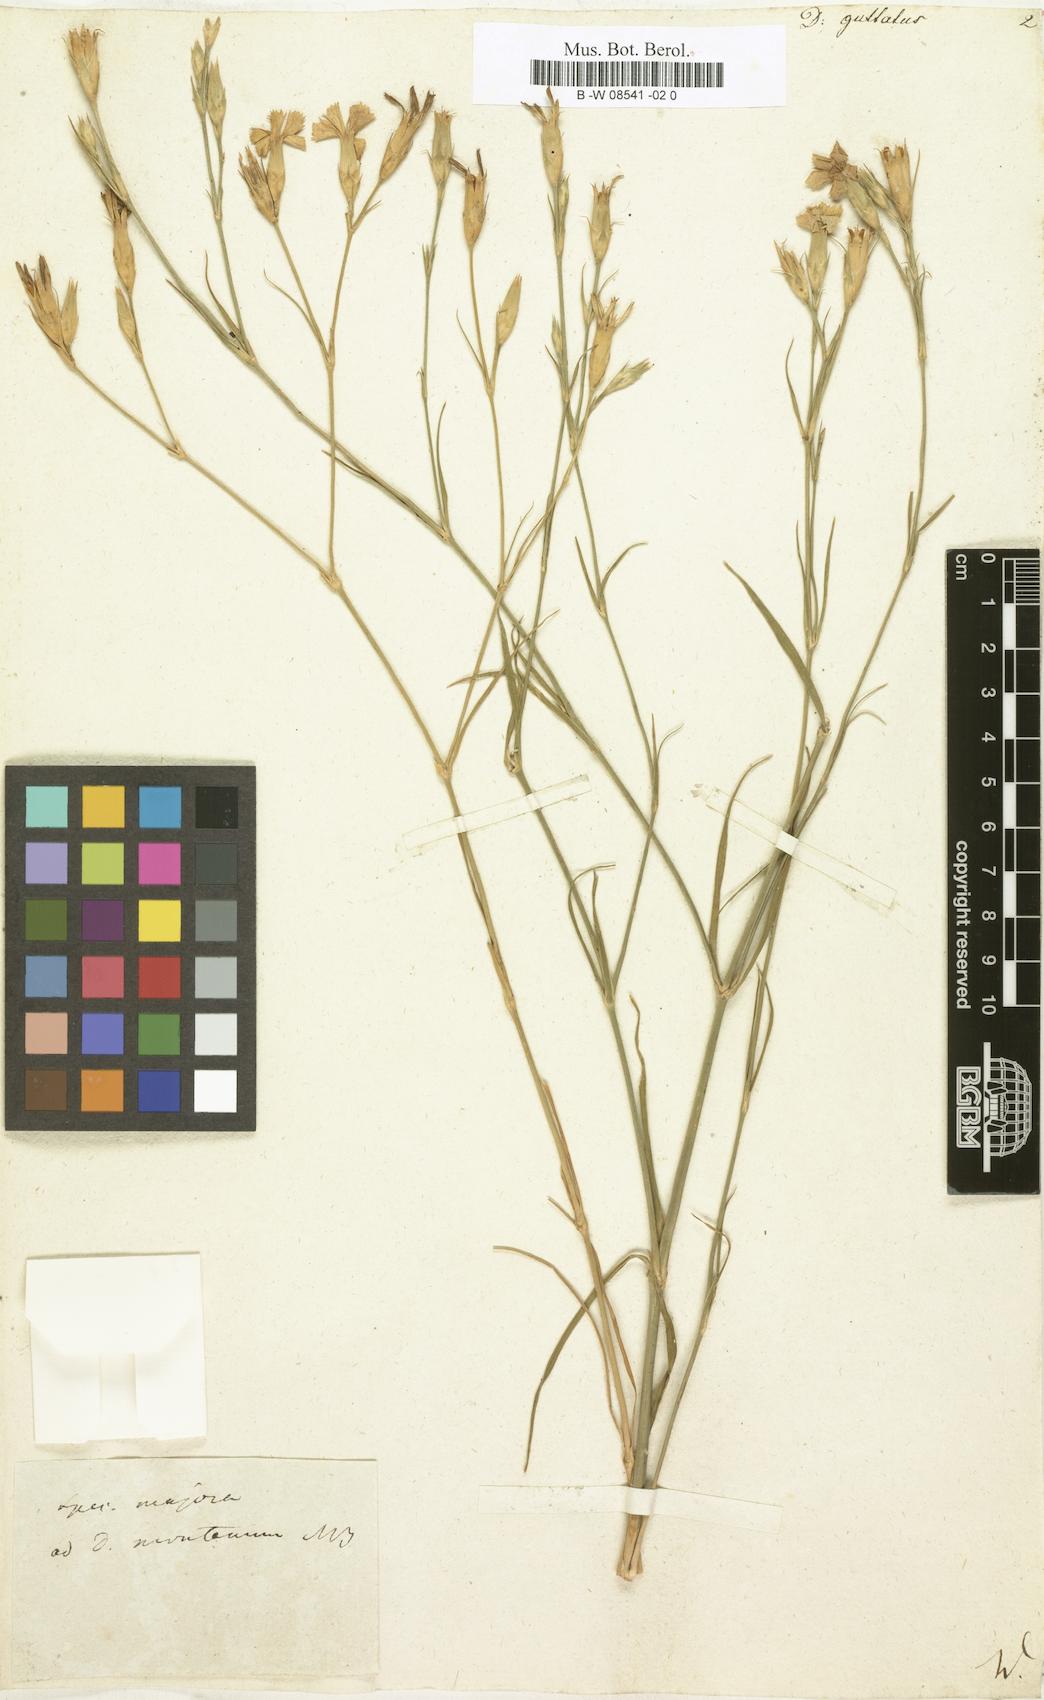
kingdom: Plantae
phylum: Tracheophyta
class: Magnoliopsida
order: Caryophyllales
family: Caryophyllaceae
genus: Dianthus
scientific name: Dianthus guttatus
